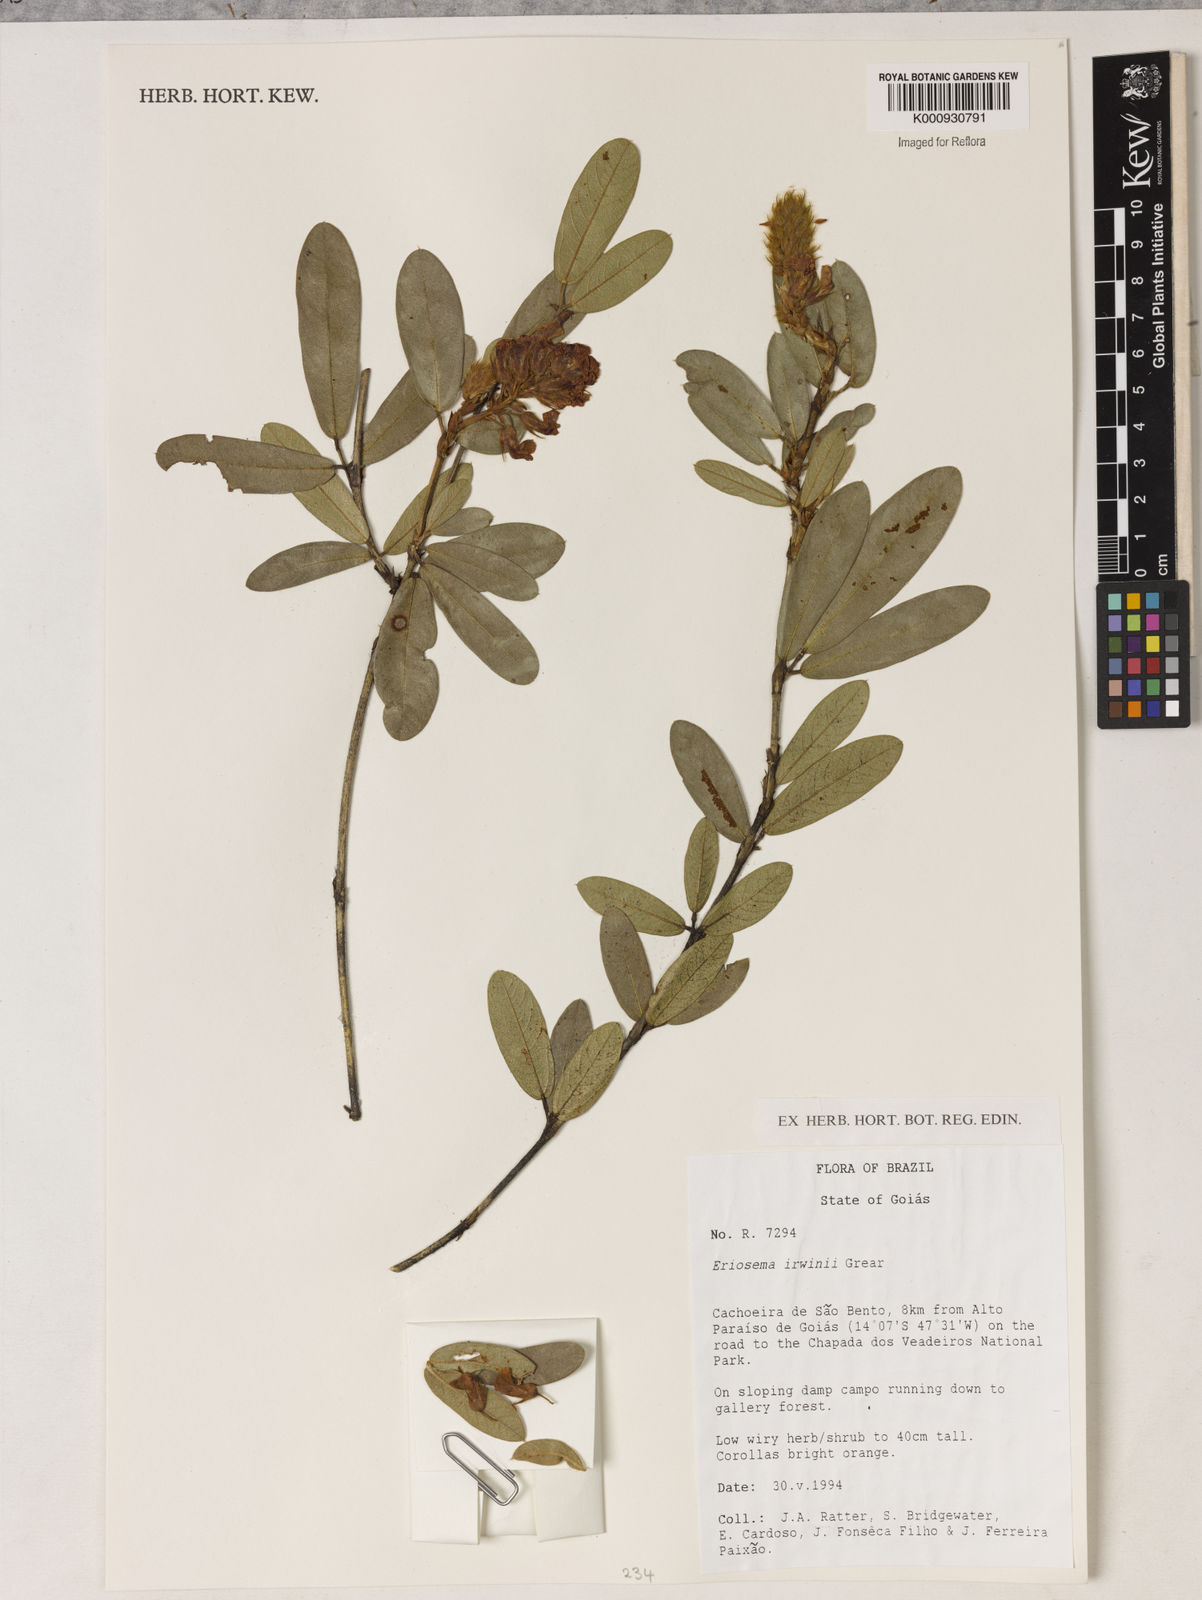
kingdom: Plantae
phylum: Tracheophyta
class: Magnoliopsida
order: Fabales
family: Fabaceae
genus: Eriosema
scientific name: Eriosema irwinii
